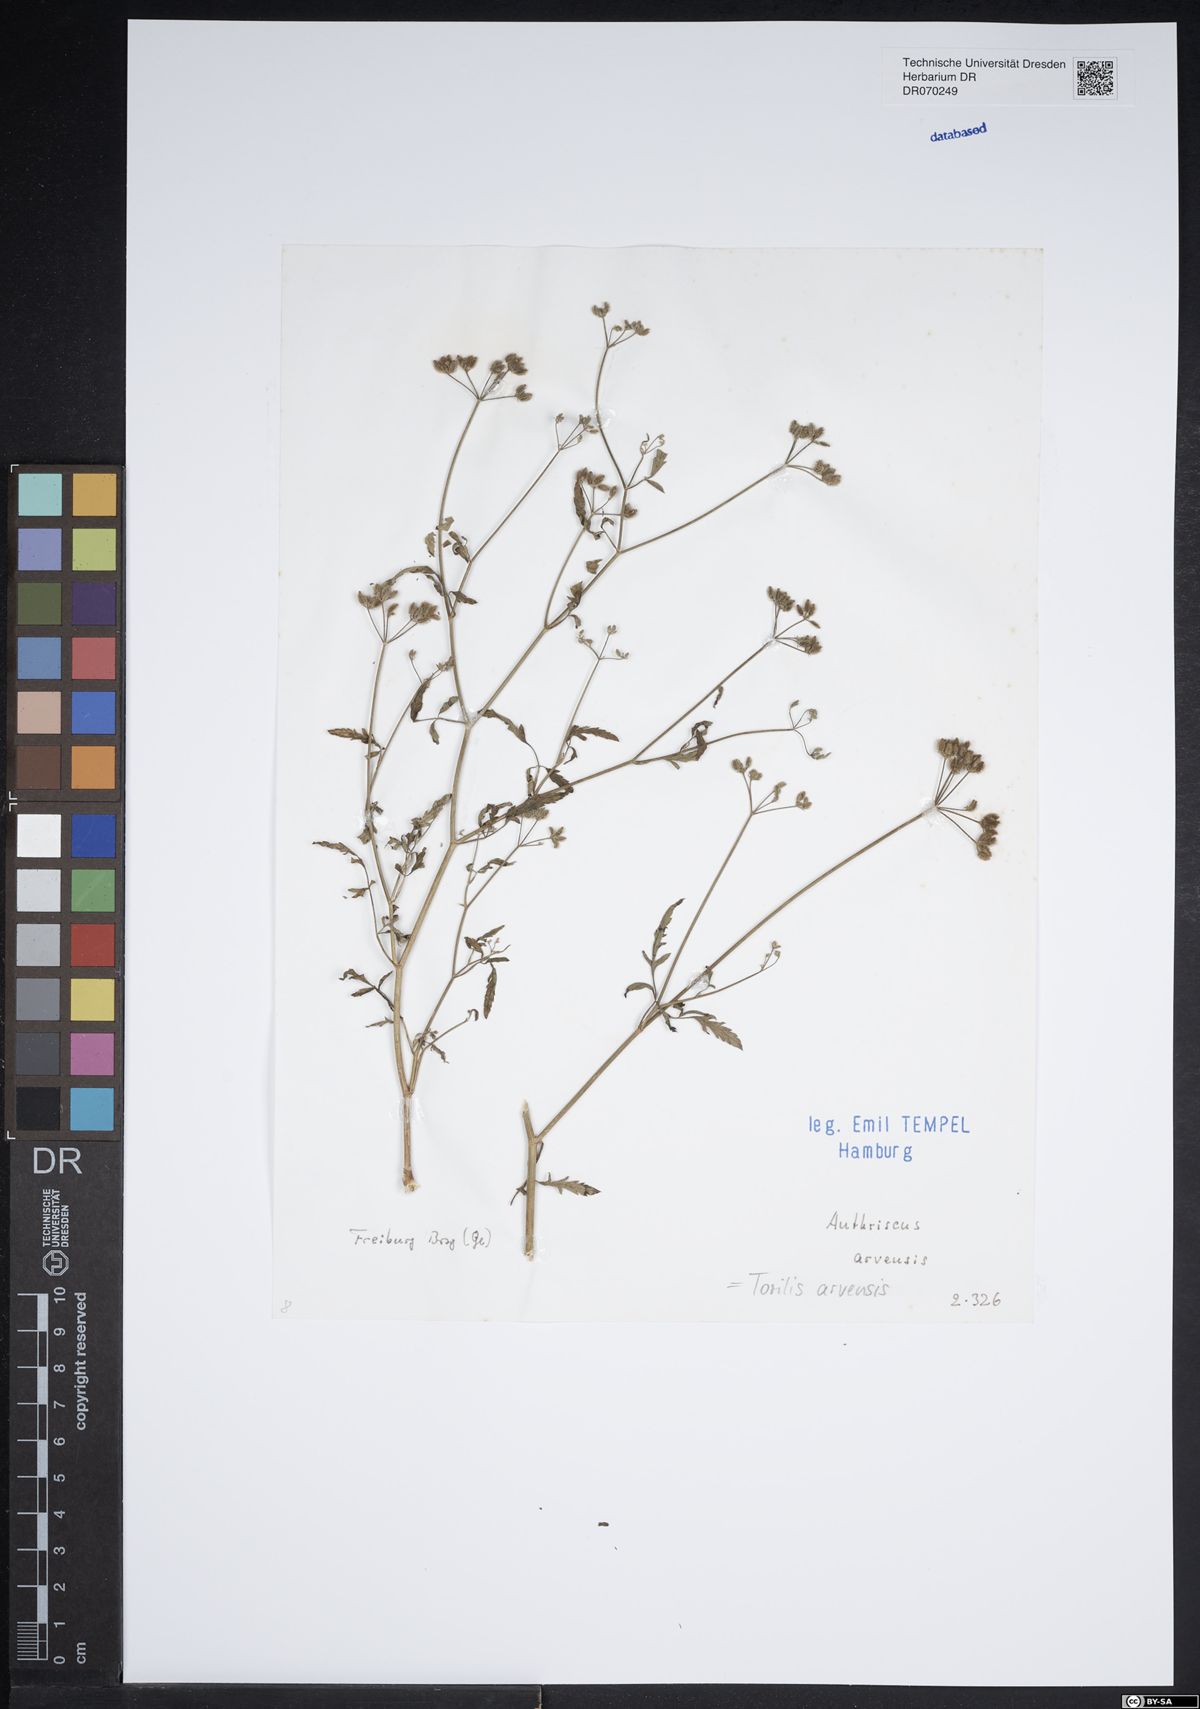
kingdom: Plantae
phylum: Tracheophyta
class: Magnoliopsida
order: Apiales
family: Apiaceae
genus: Torilis
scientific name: Torilis arvensis
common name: Spreading hedge-parsley
